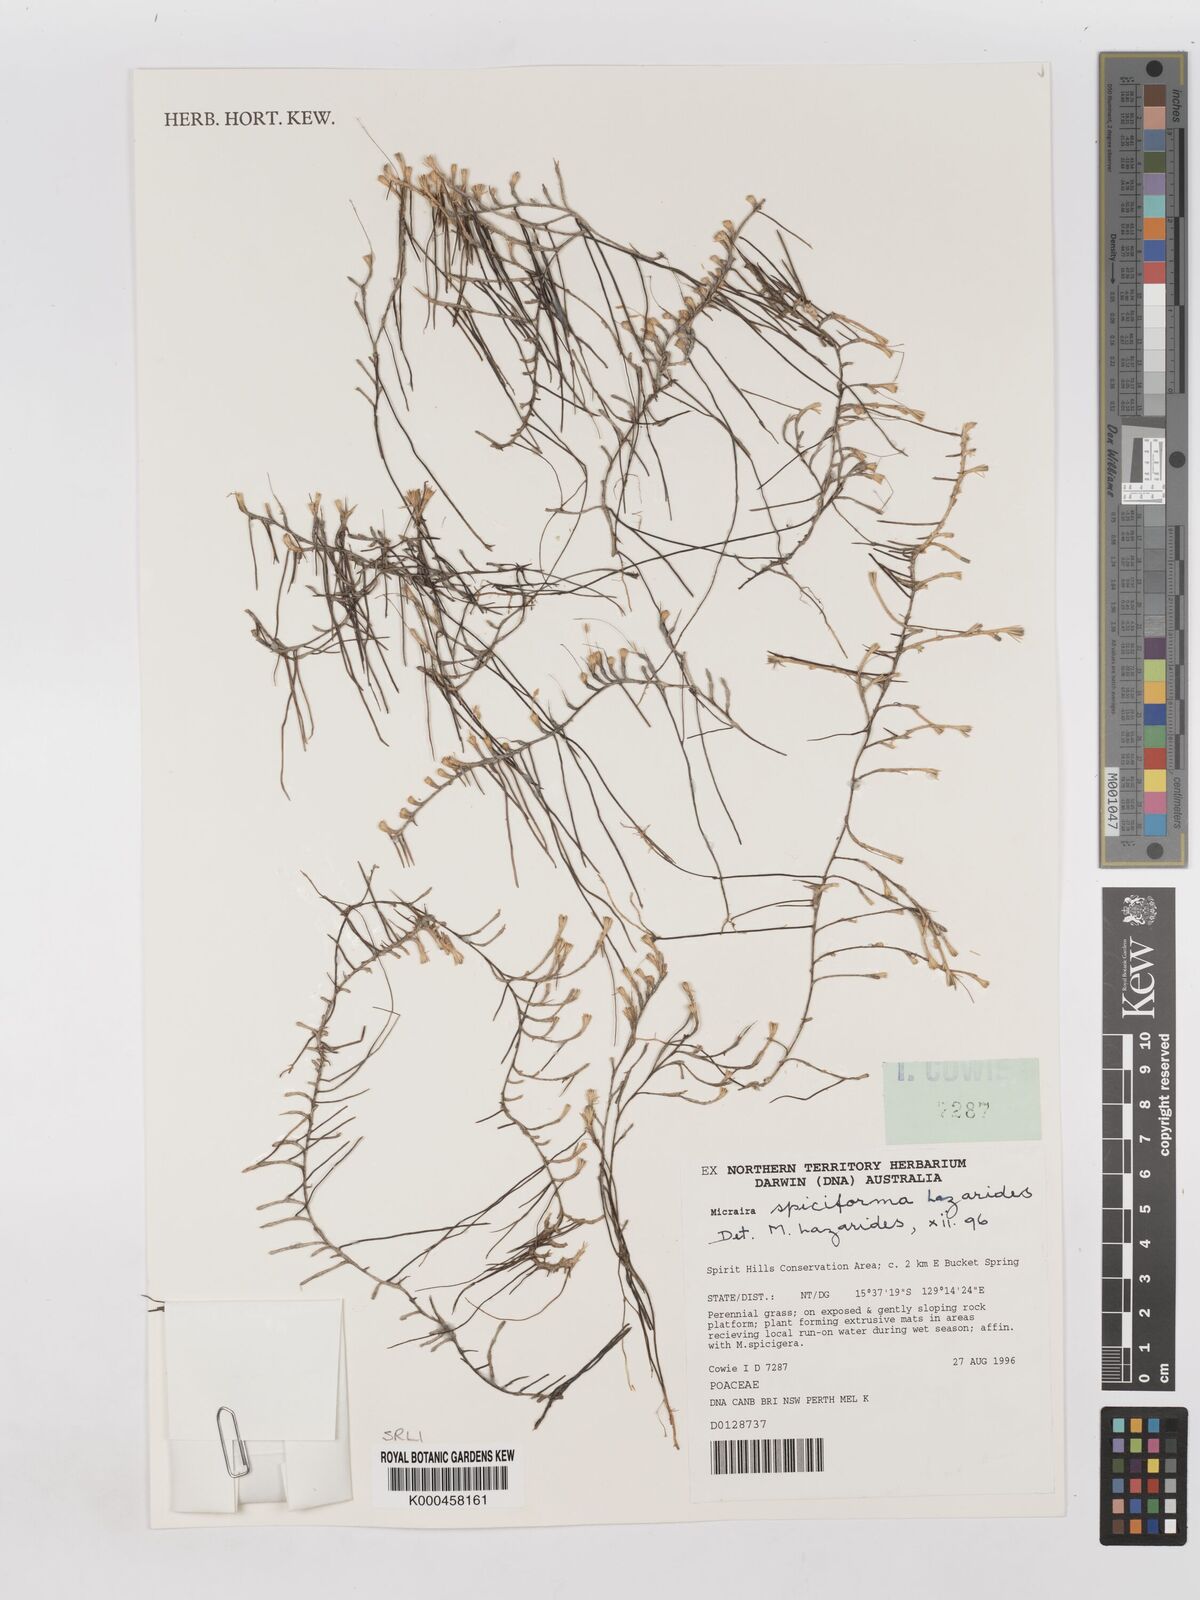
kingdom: Plantae
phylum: Tracheophyta
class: Liliopsida
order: Poales
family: Poaceae
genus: Micraira
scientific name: Micraira spiciforma
